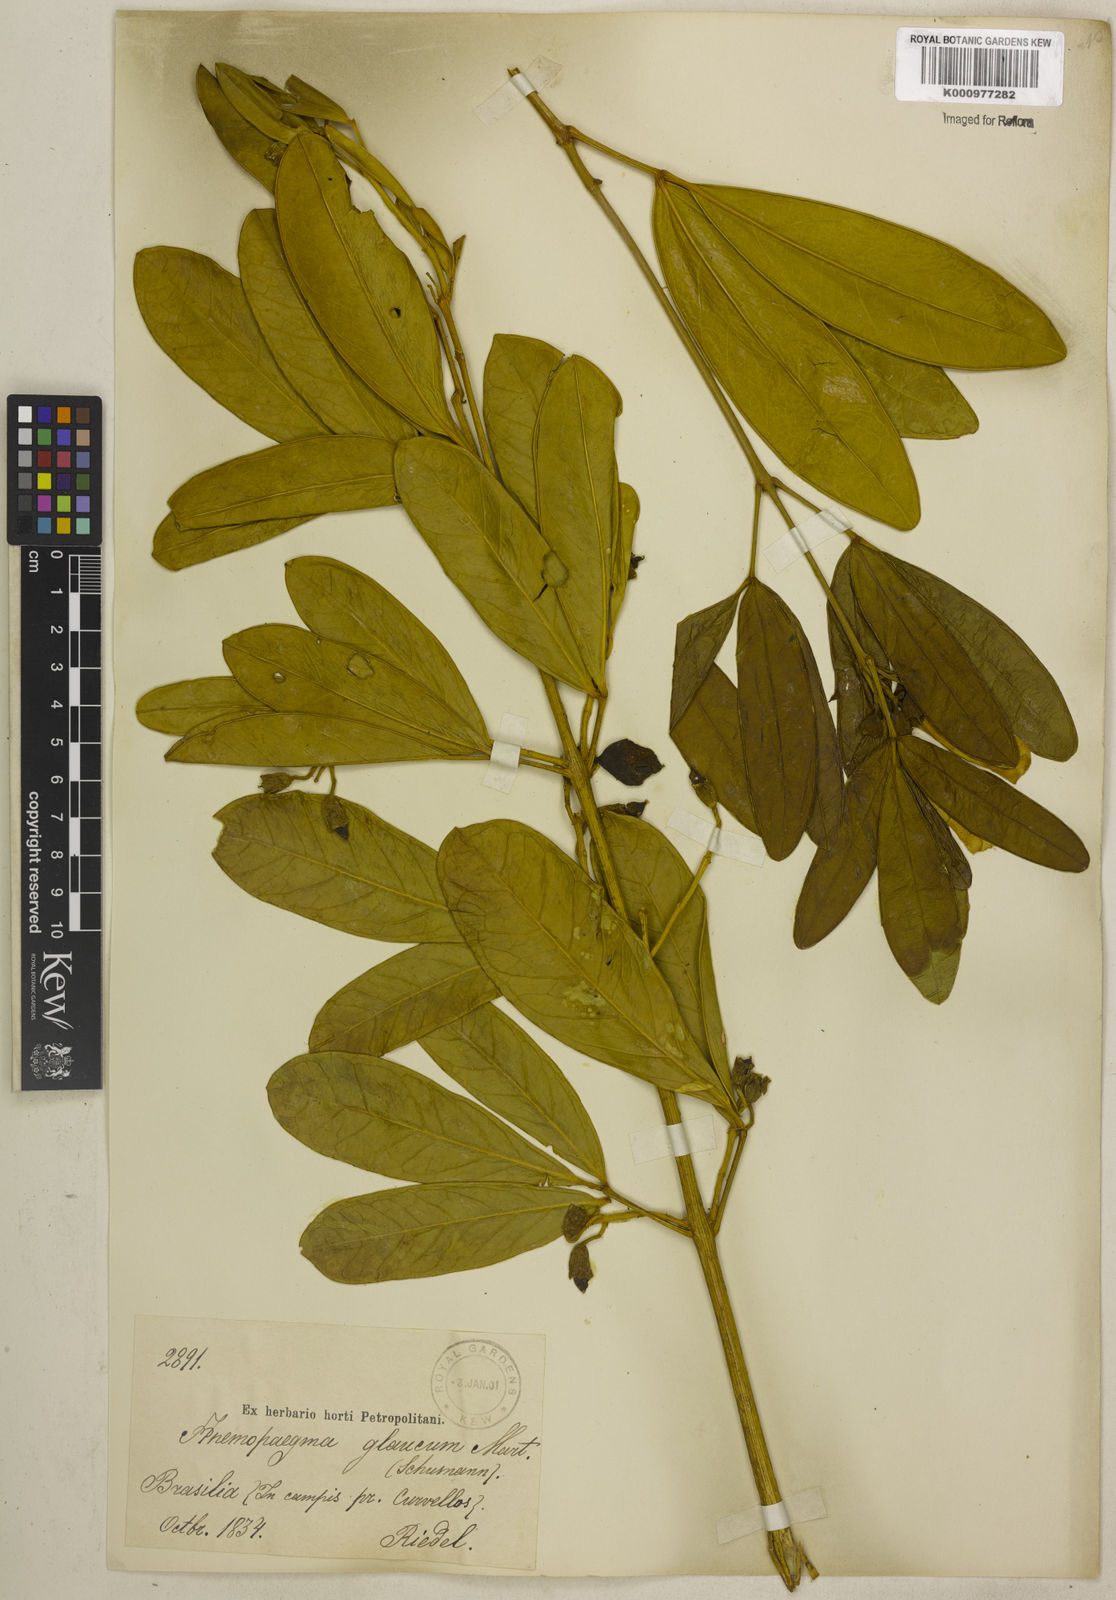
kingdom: Plantae
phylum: Tracheophyta
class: Magnoliopsida
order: Lamiales
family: Bignoniaceae
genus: Anemopaegma
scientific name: Anemopaegma glaucum
